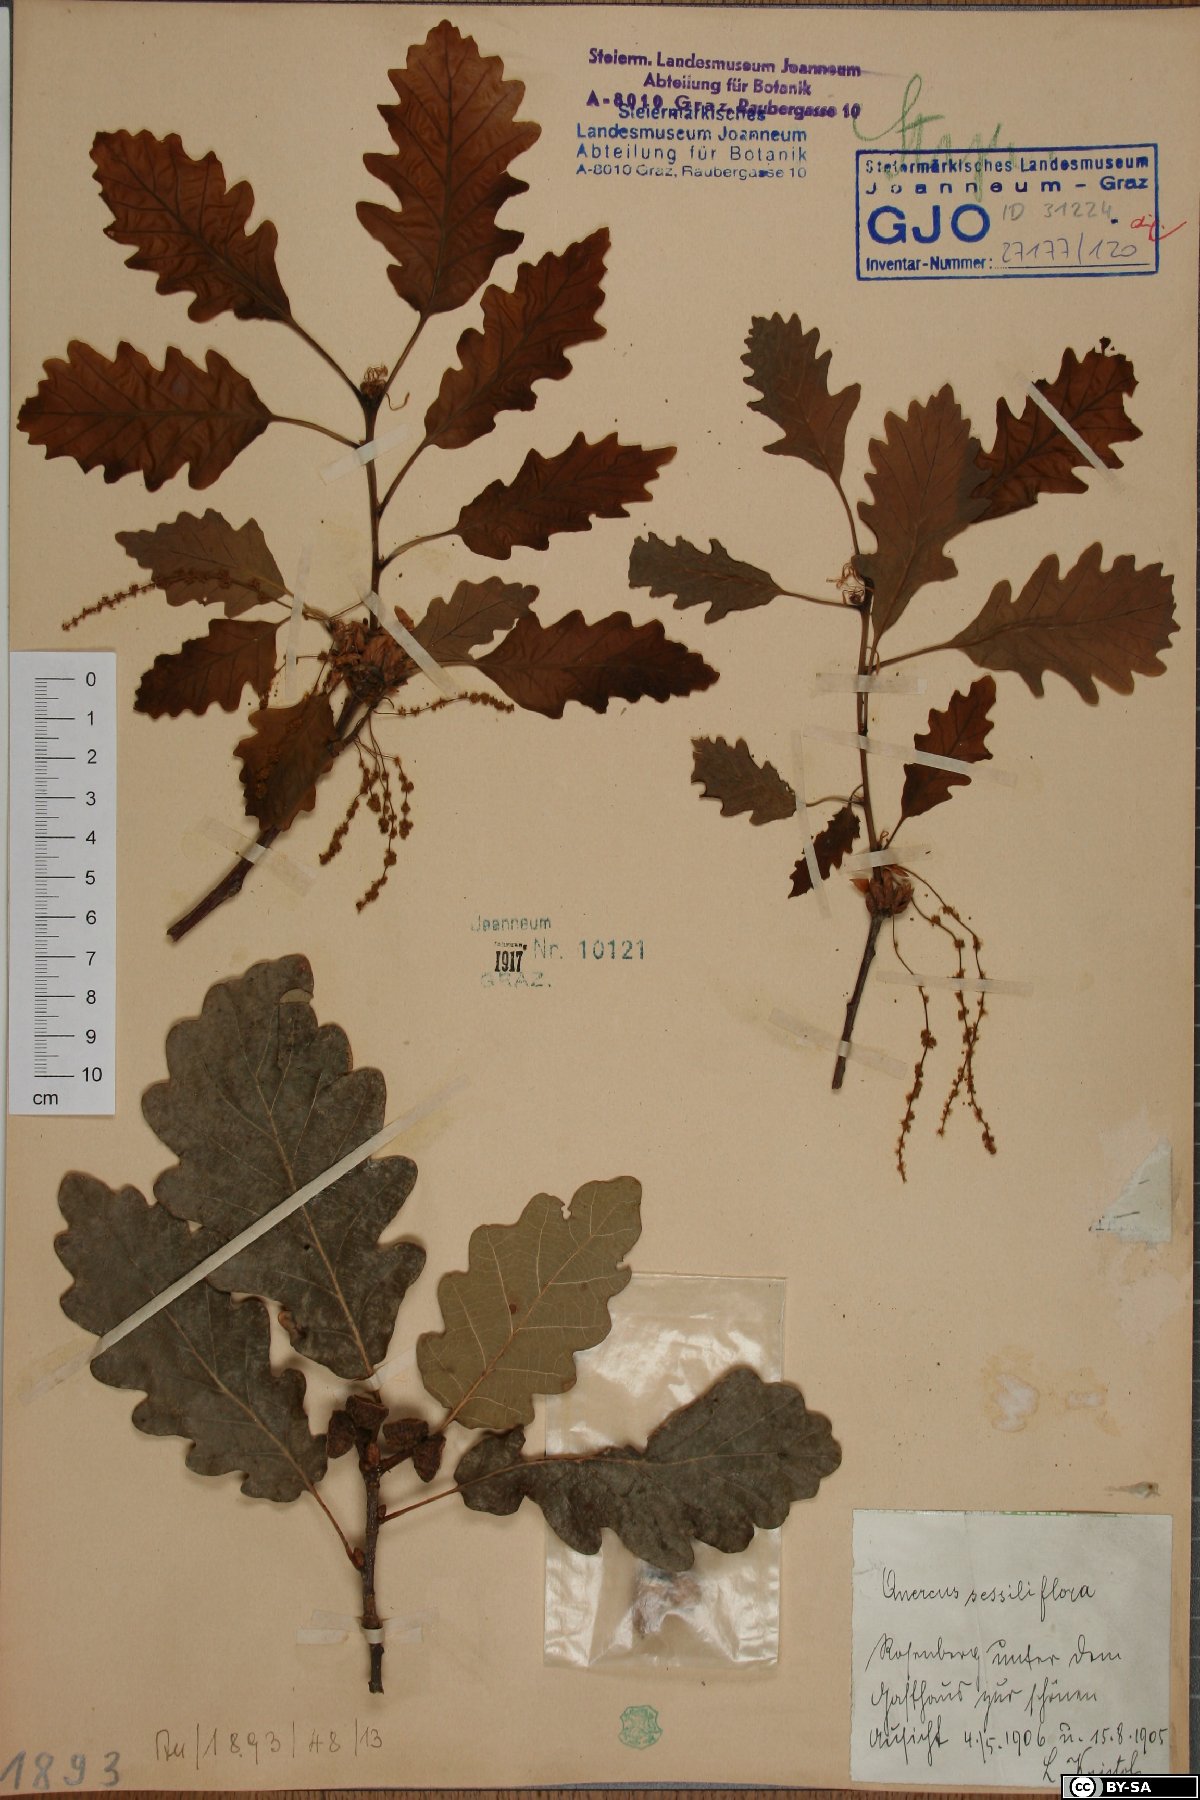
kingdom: Plantae
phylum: Tracheophyta
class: Magnoliopsida
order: Fagales
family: Fagaceae
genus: Quercus
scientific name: Quercus petraea
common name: Sessile oak
